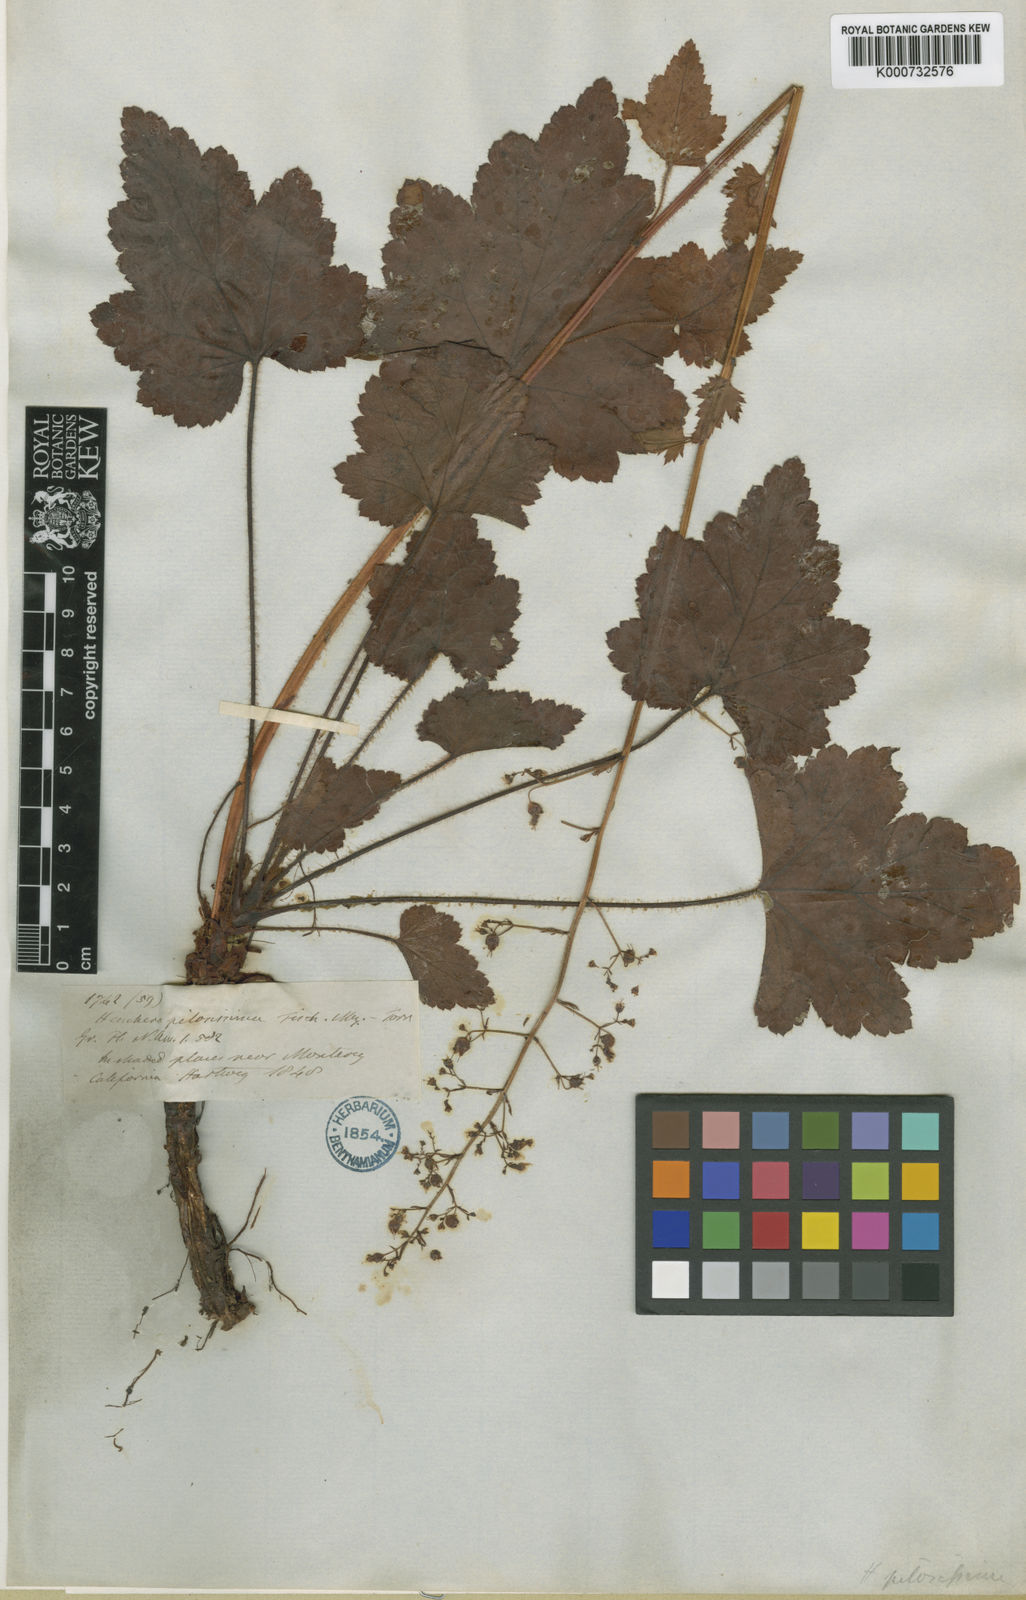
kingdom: Plantae
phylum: Tracheophyta
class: Magnoliopsida
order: Saxifragales
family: Saxifragaceae
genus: Heuchera
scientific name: Heuchera micrantha
